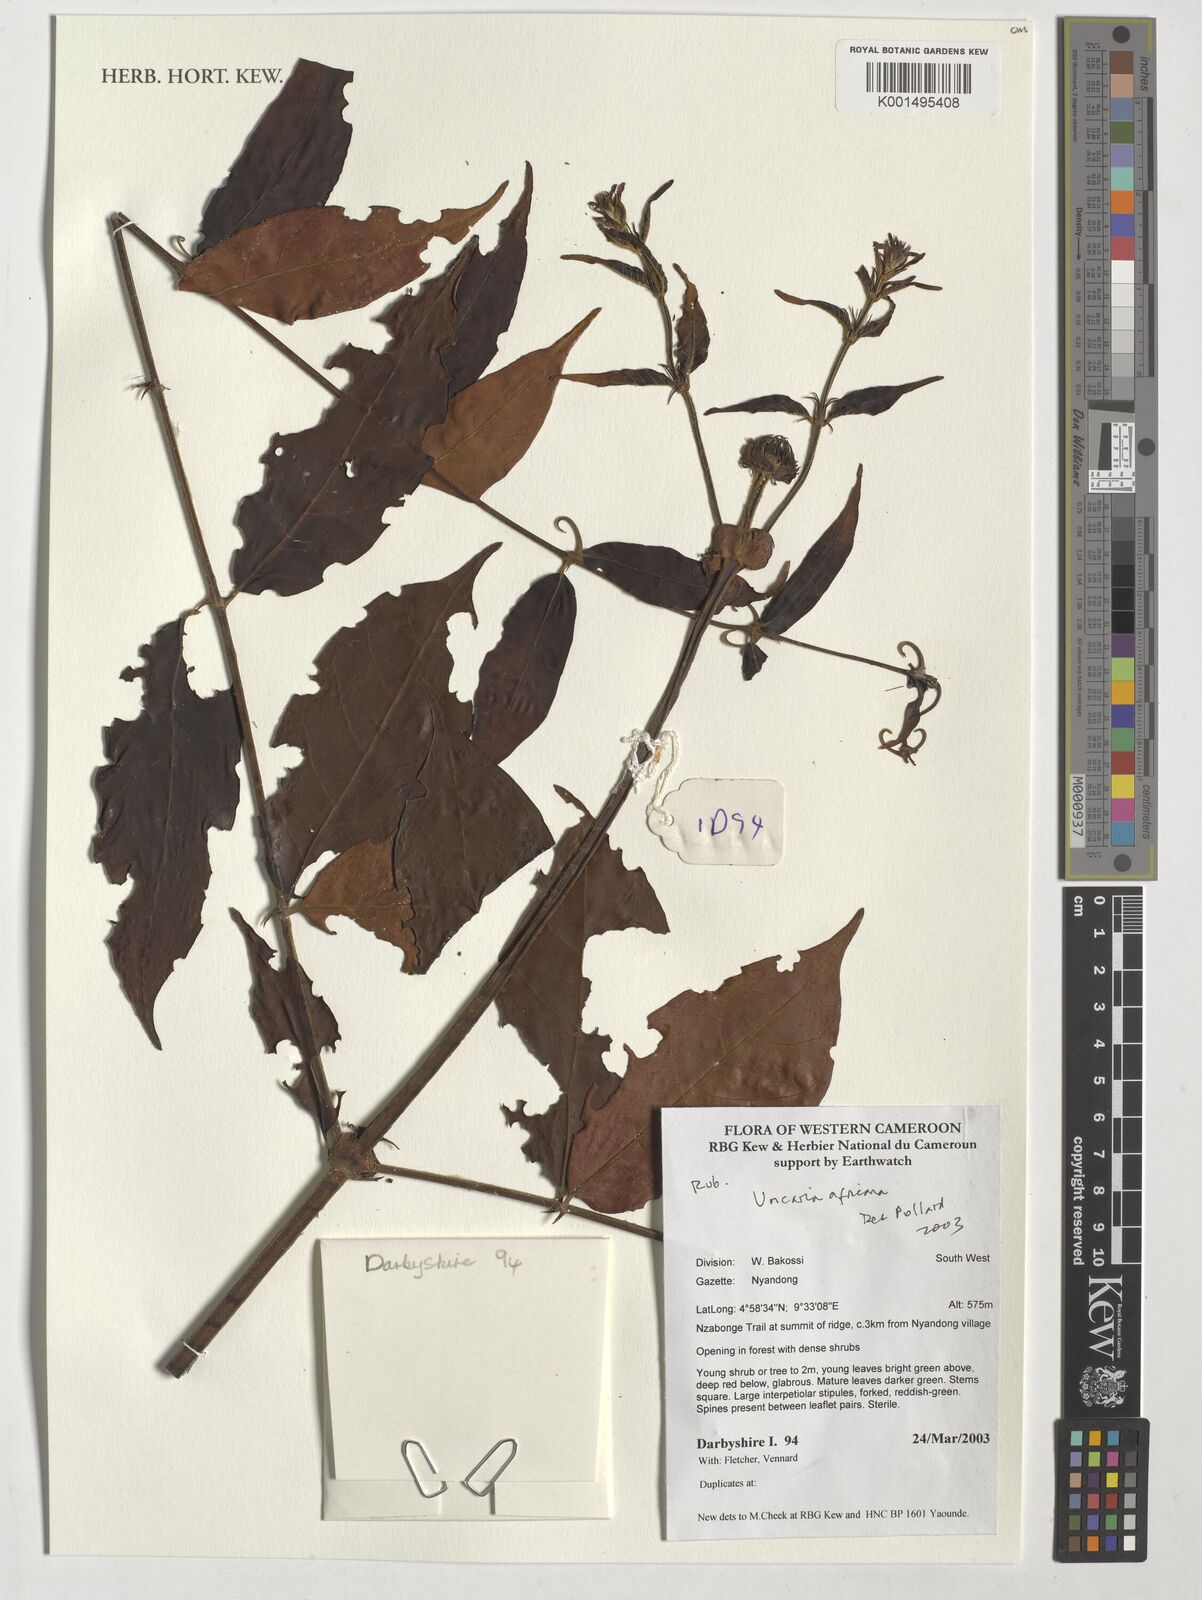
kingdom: Plantae
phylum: Tracheophyta
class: Magnoliopsida
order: Gentianales
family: Rubiaceae
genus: Uncaria
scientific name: Uncaria africana
